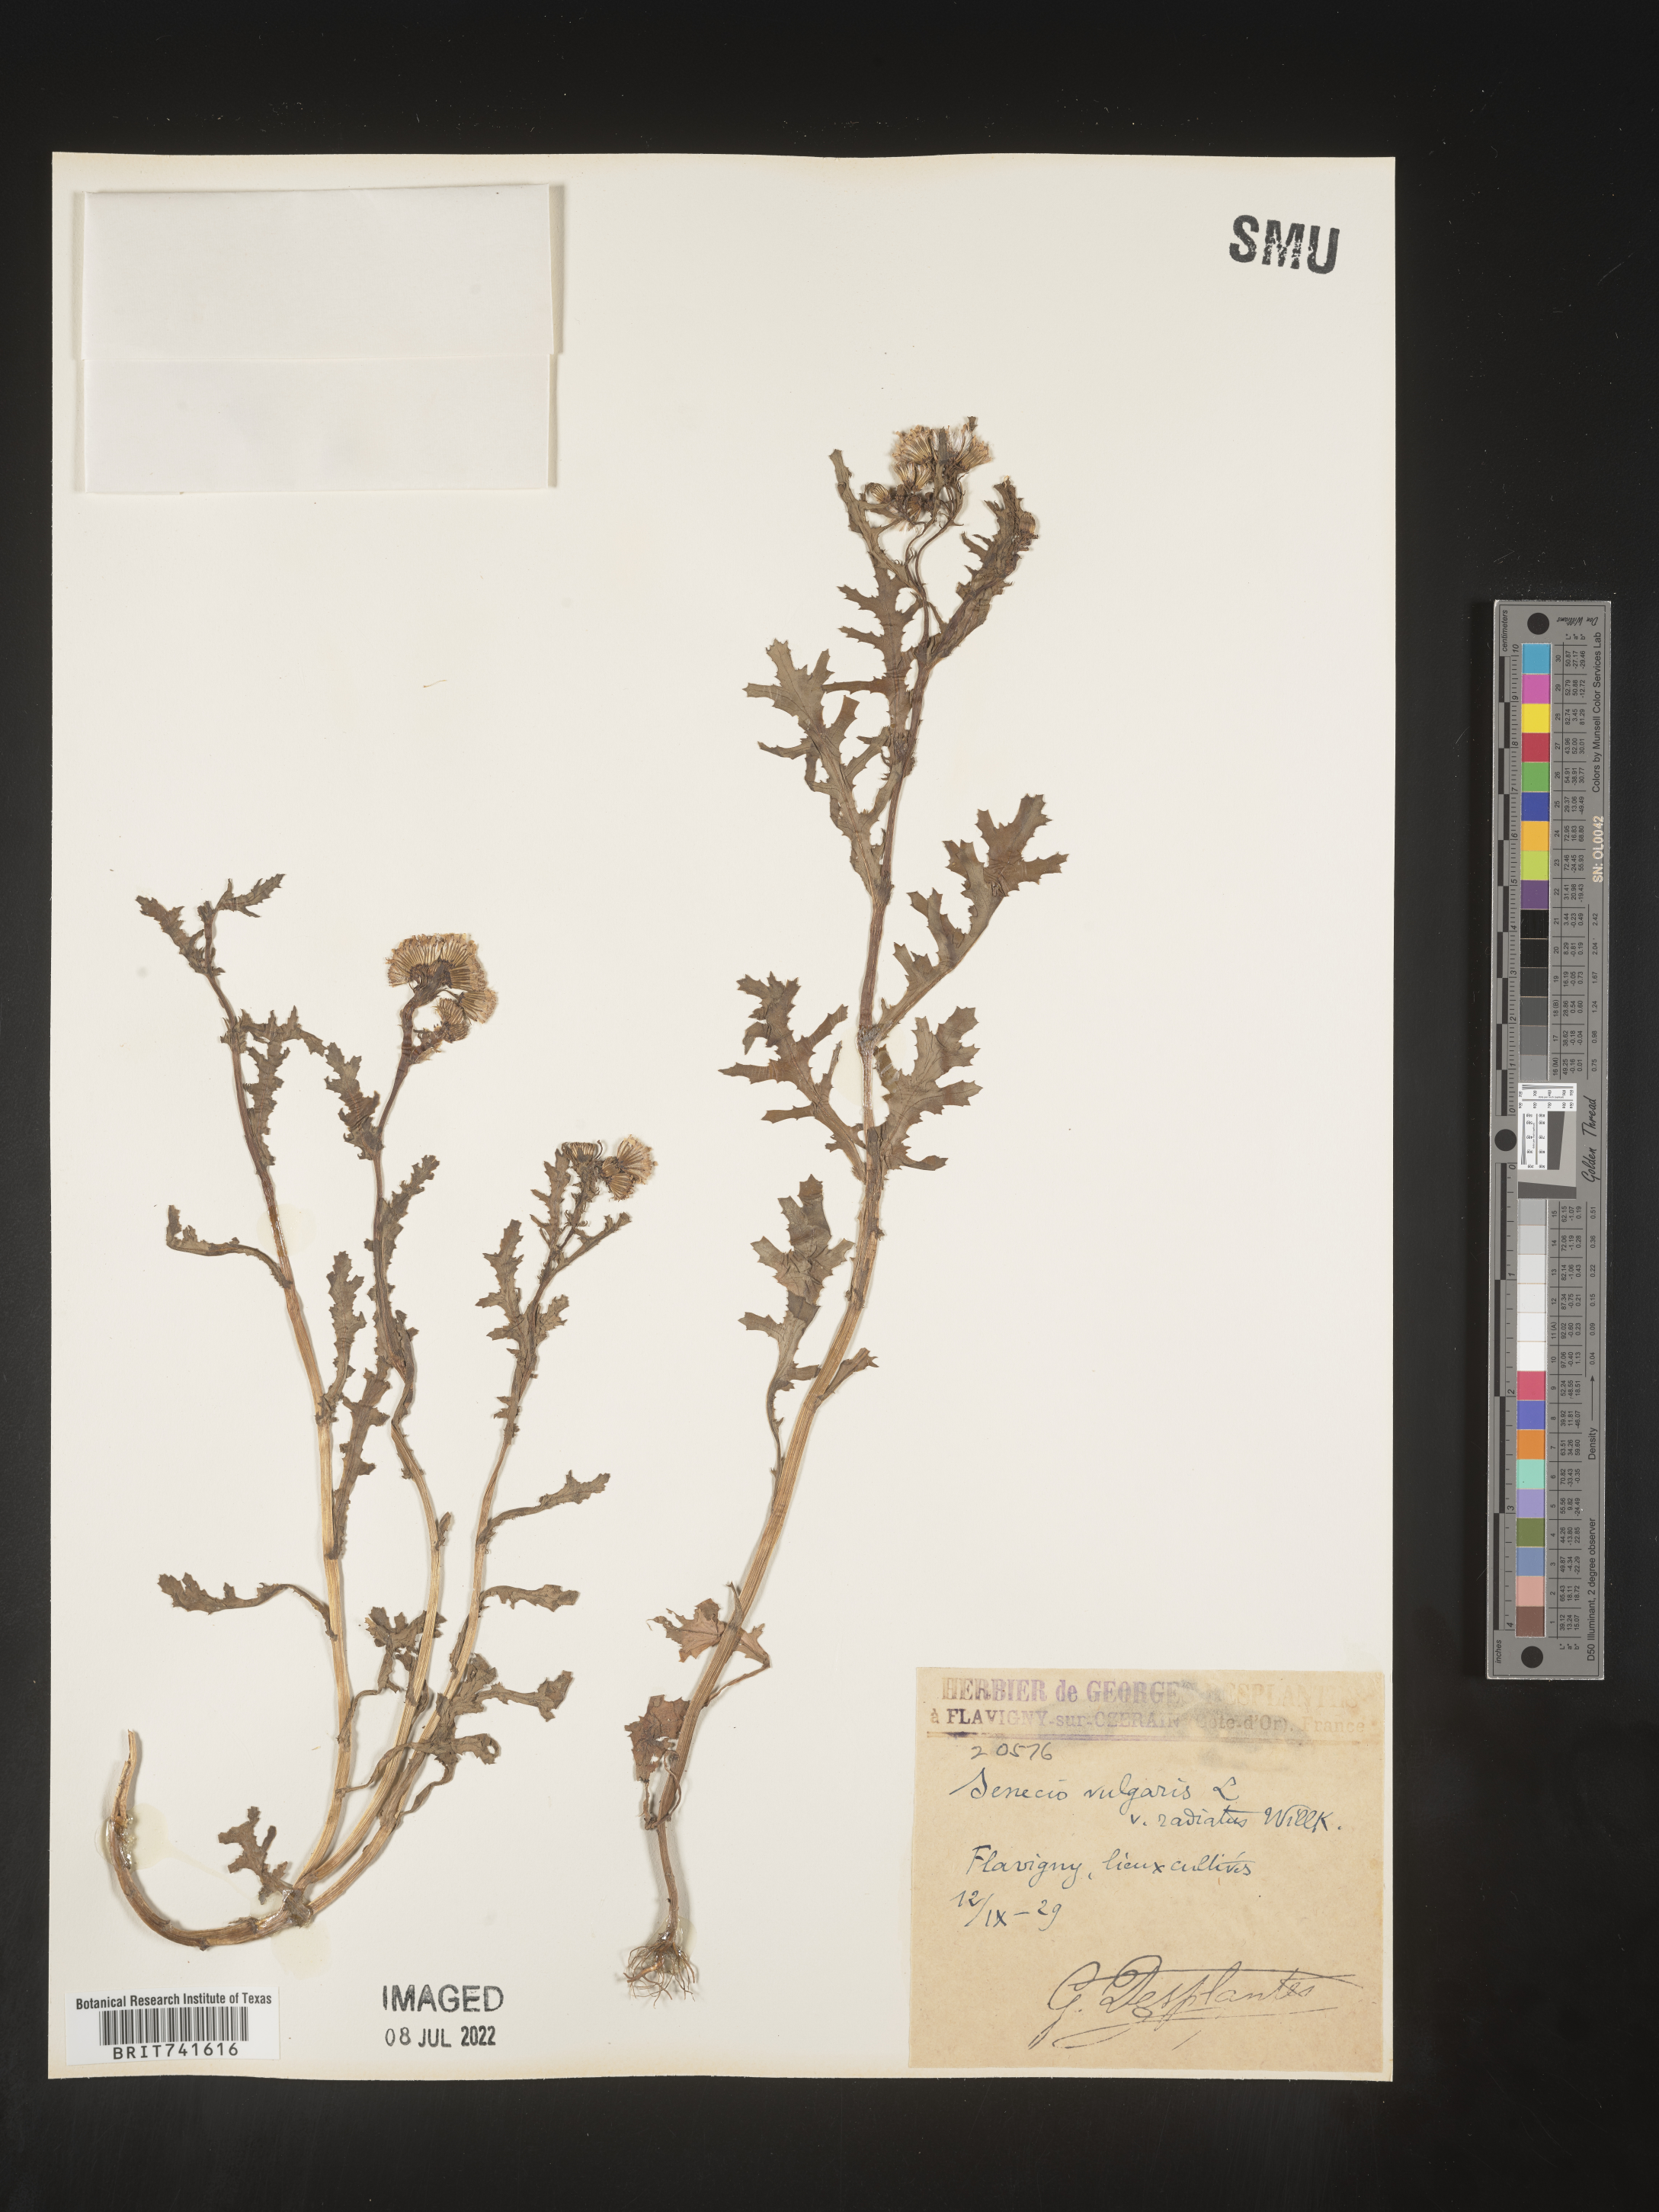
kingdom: Plantae
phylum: Tracheophyta
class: Magnoliopsida
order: Asterales
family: Asteraceae
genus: Senecio
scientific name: Senecio
